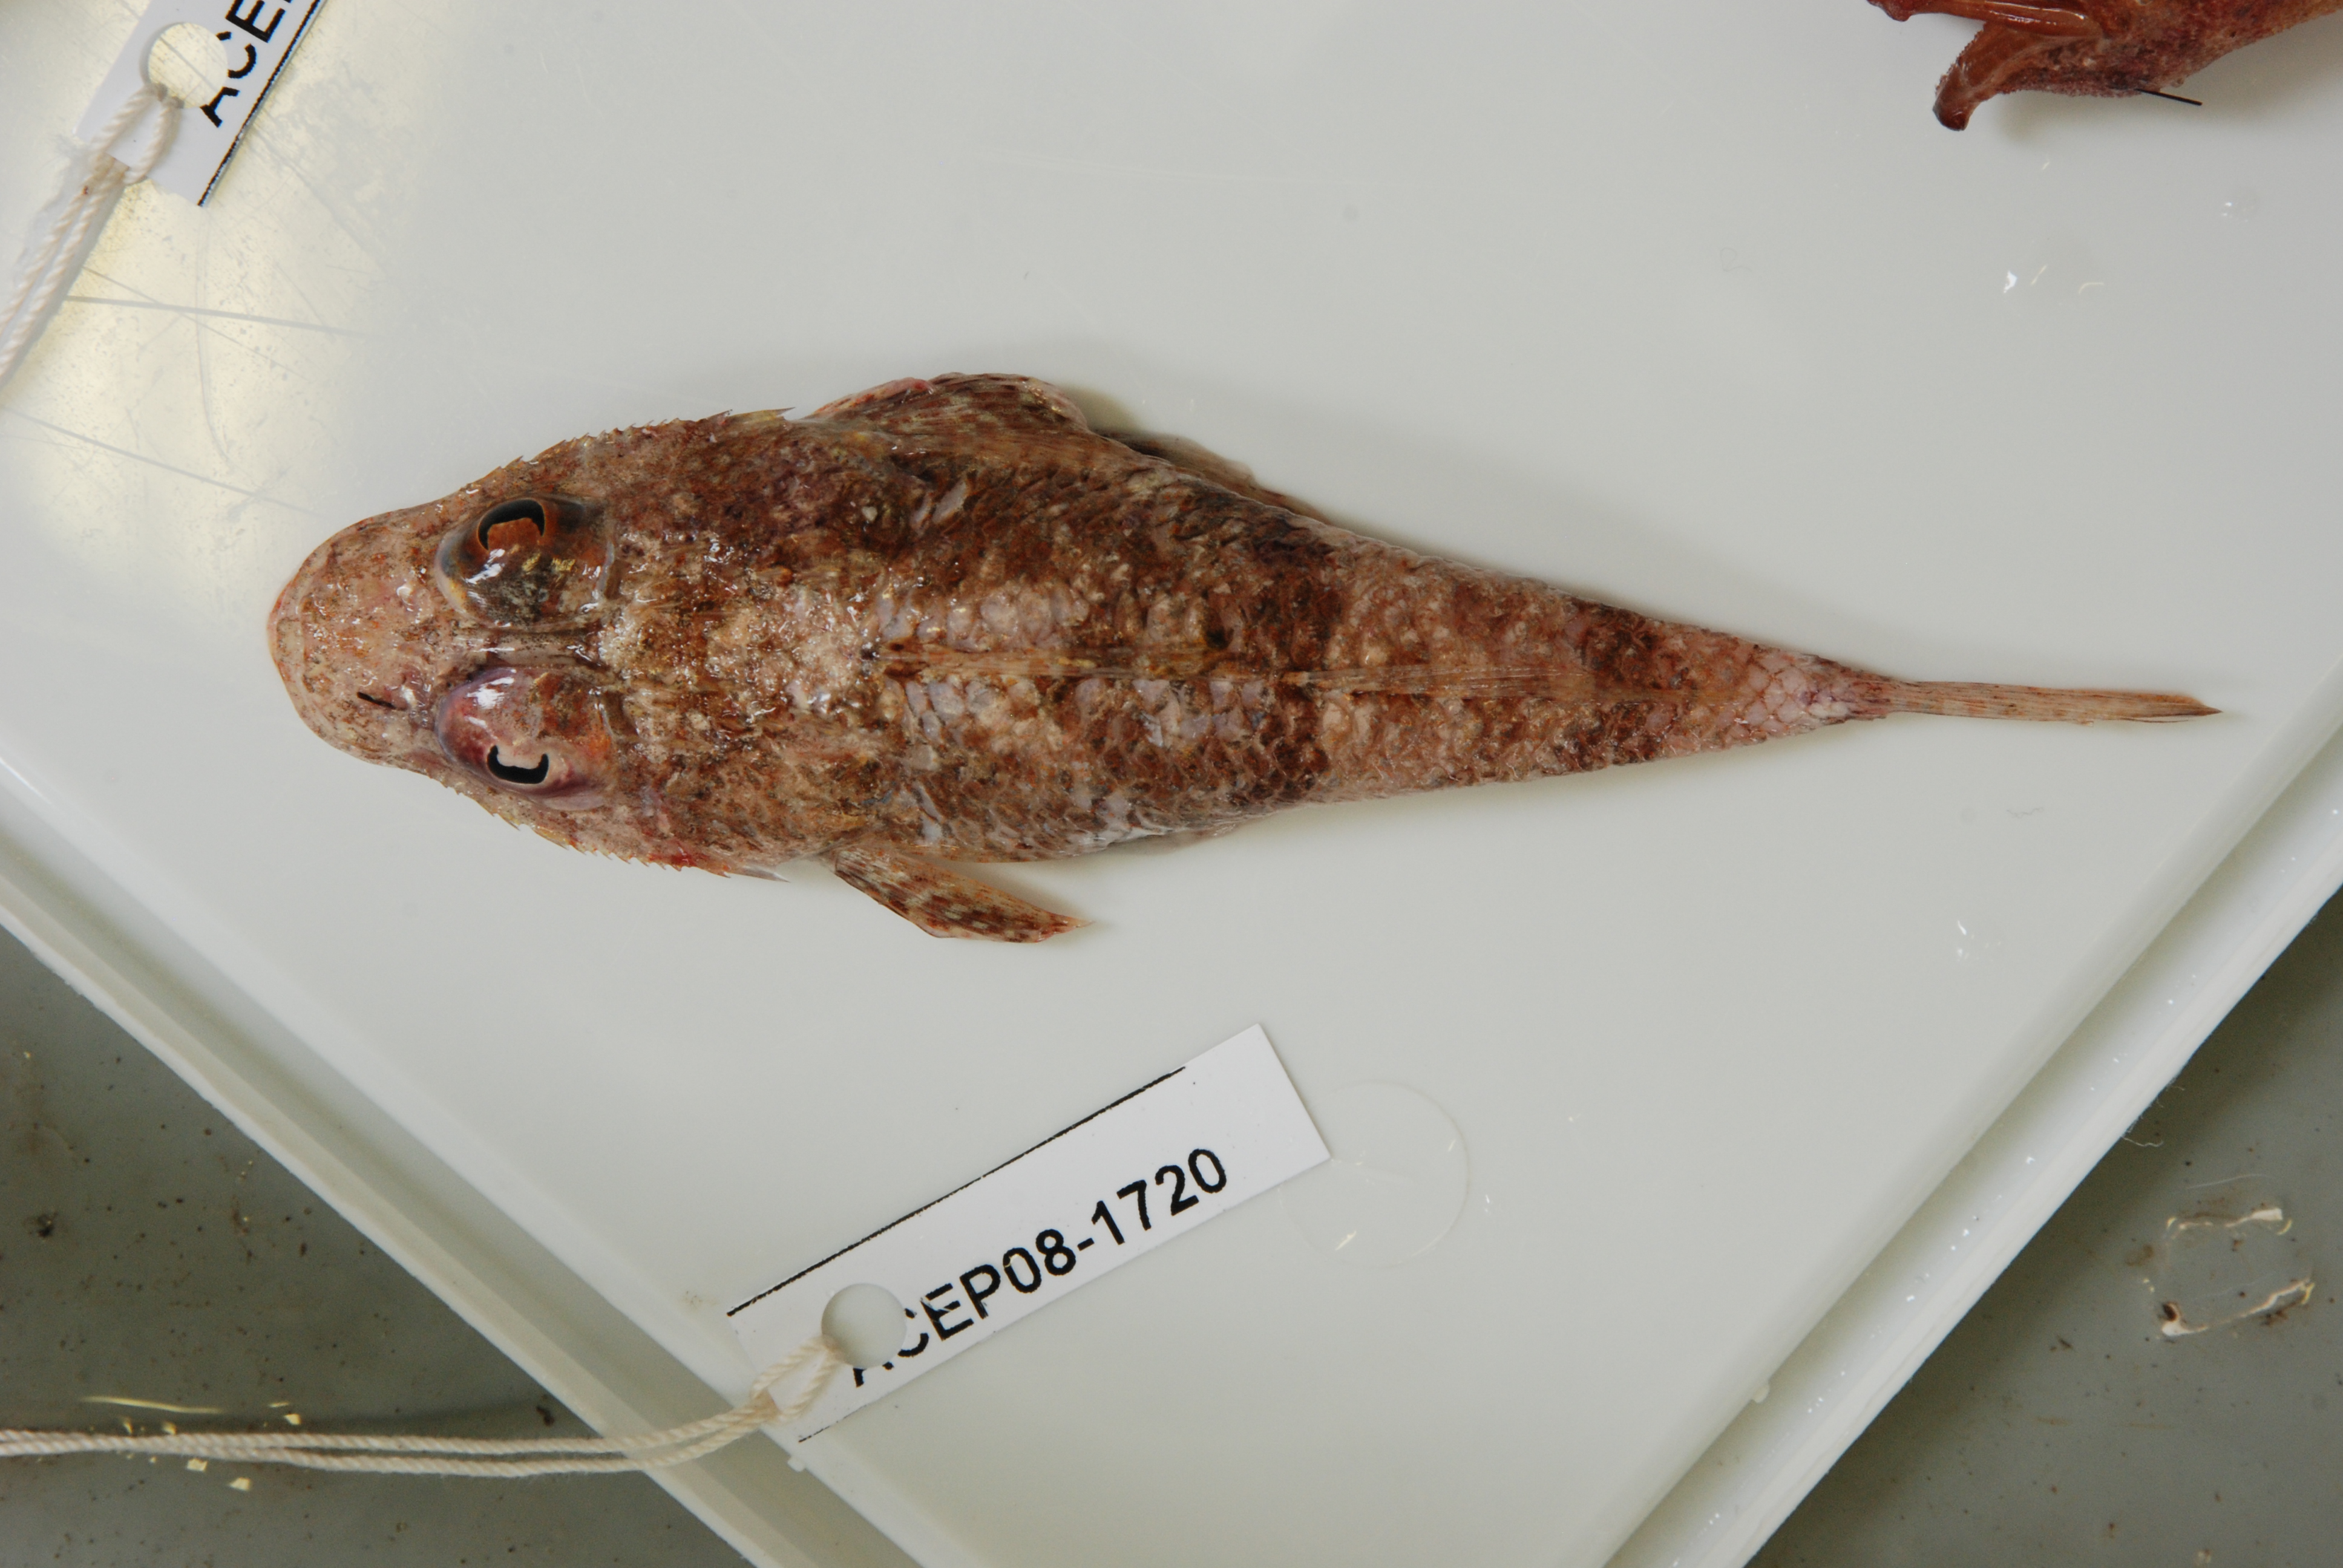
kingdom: Animalia
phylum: Chordata
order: Scorpaeniformes
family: Platycephalidae
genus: Cociella
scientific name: Cociella
